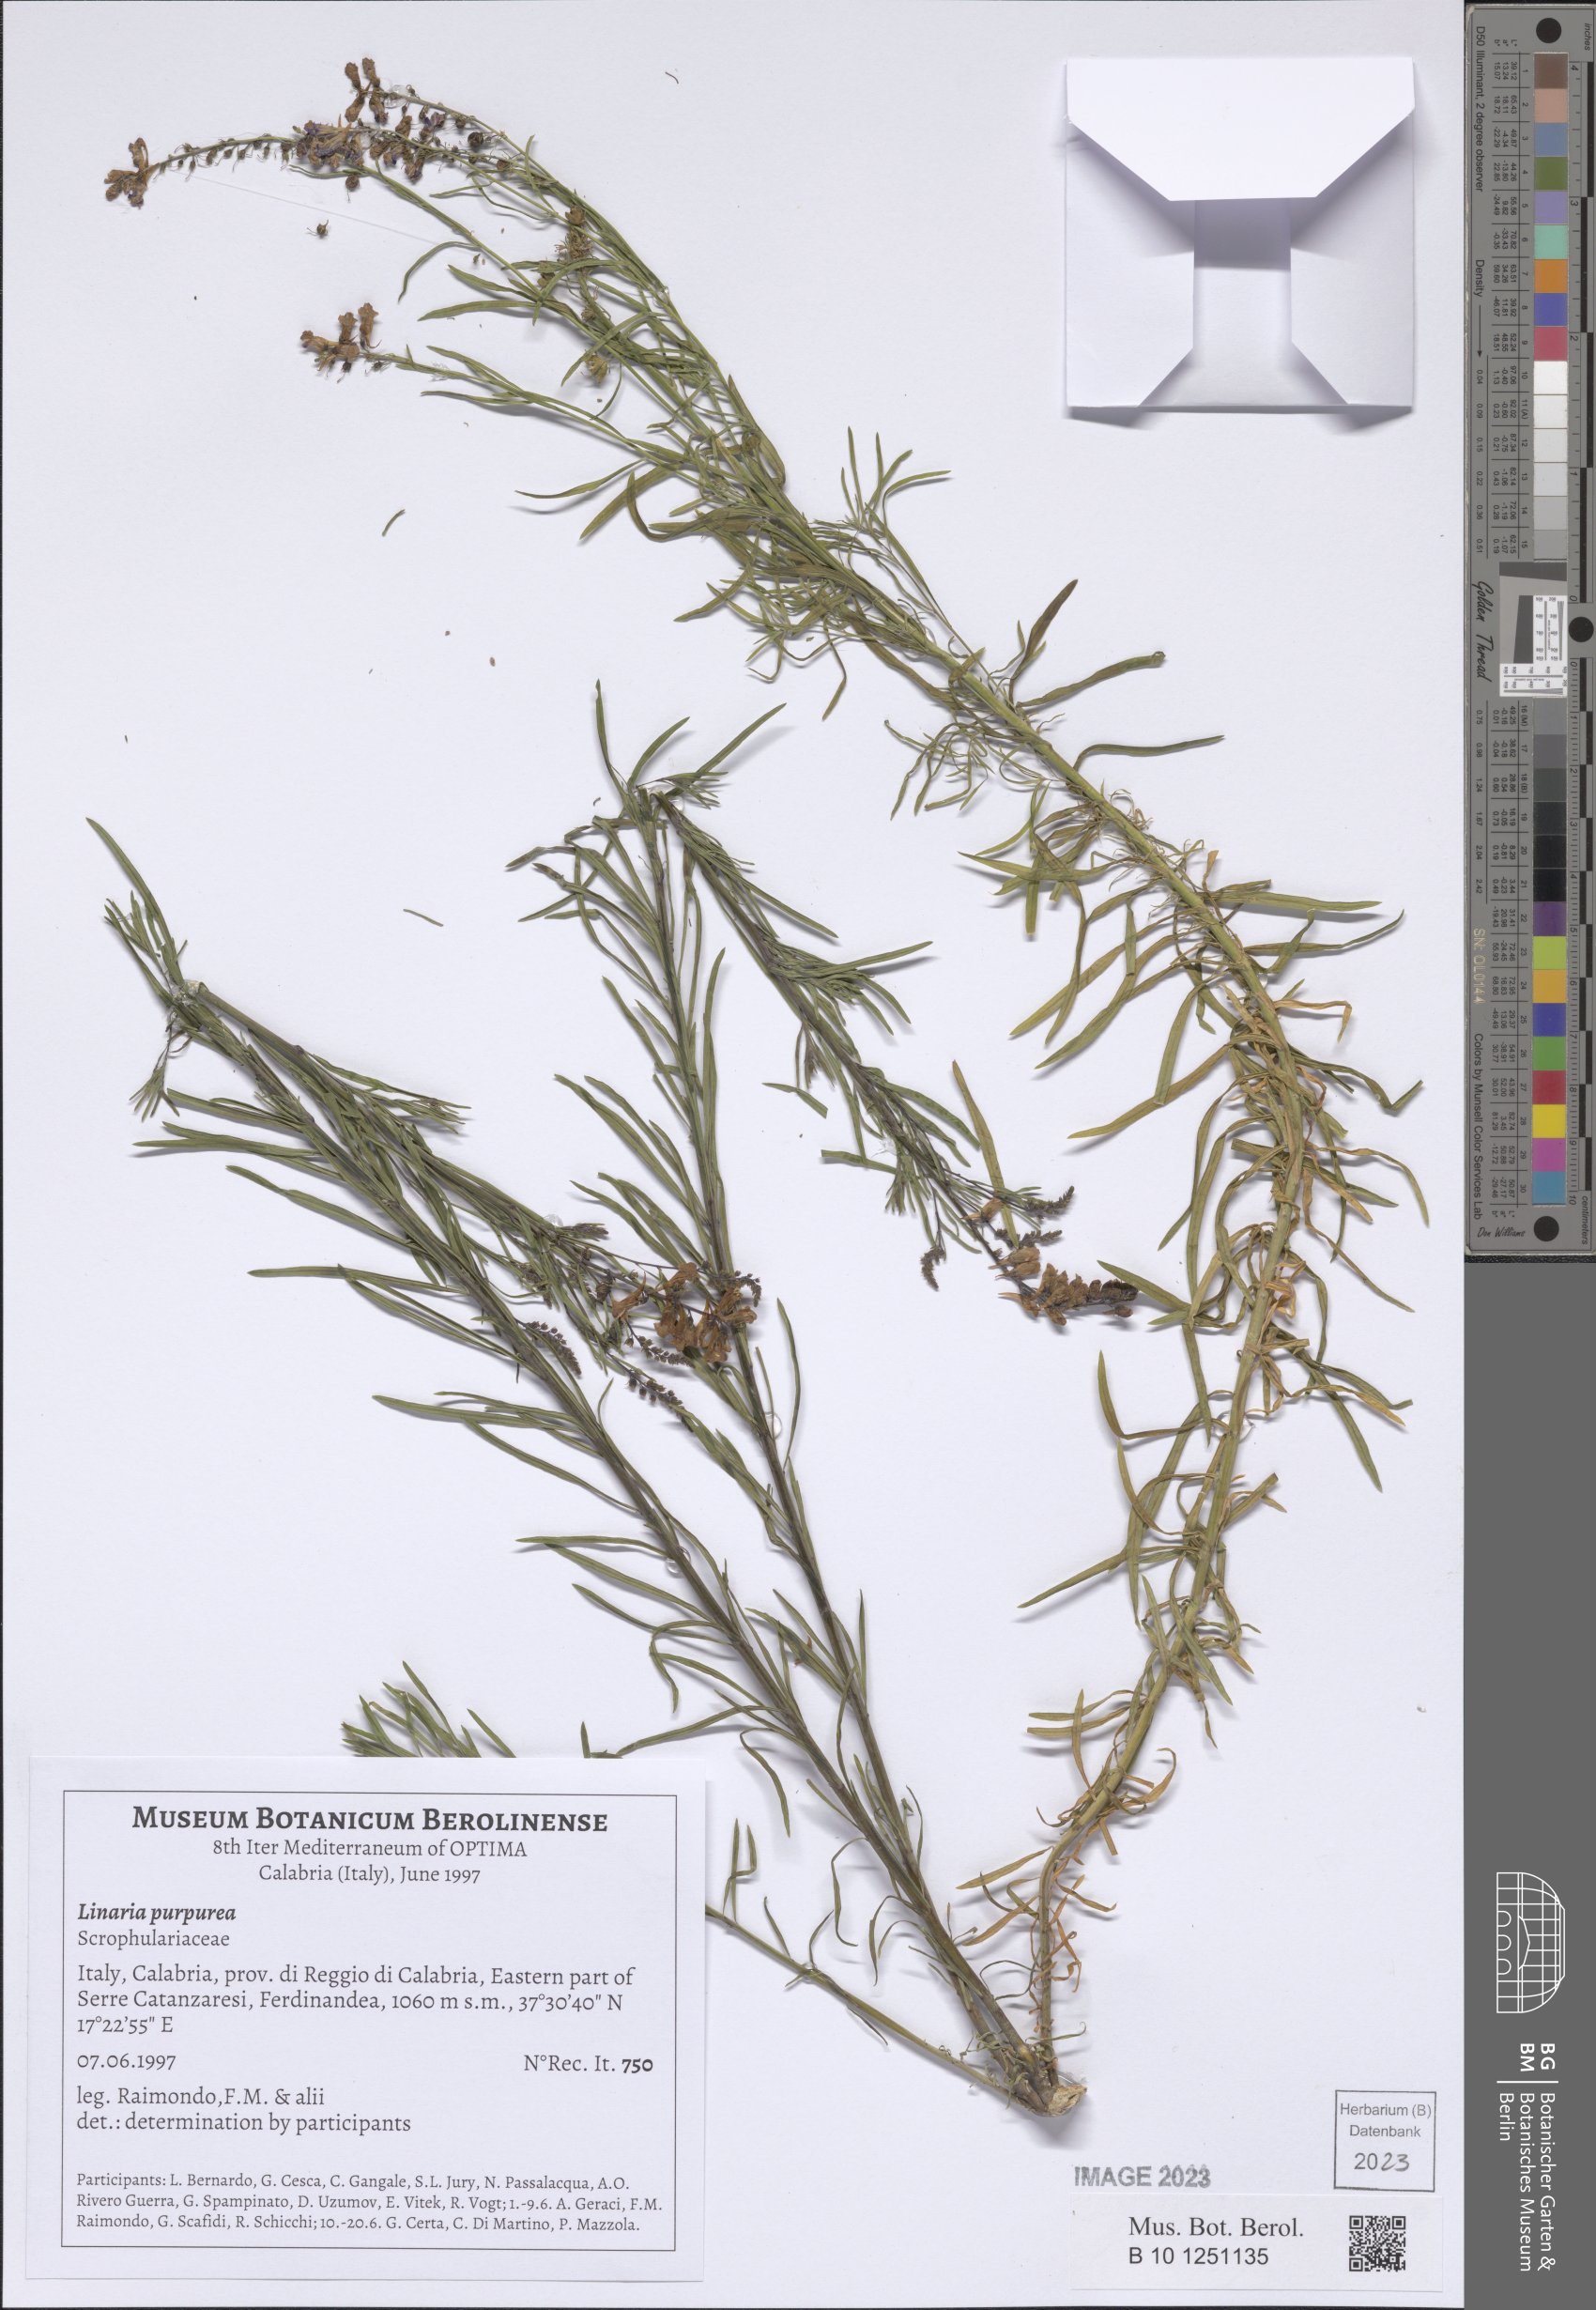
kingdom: Plantae
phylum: Tracheophyta
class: Magnoliopsida
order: Lamiales
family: Plantaginaceae
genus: Linaria
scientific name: Linaria purpurea
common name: Purple toadflax
